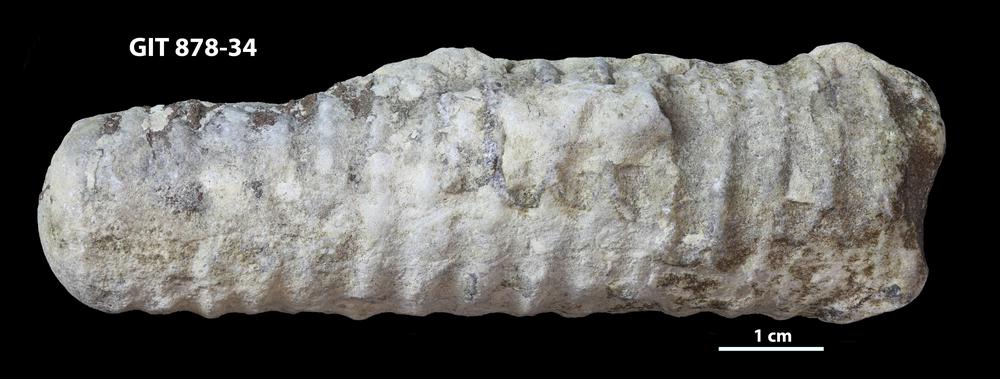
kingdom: Animalia
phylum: Mollusca
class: Cephalopoda
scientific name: Cephalopoda
